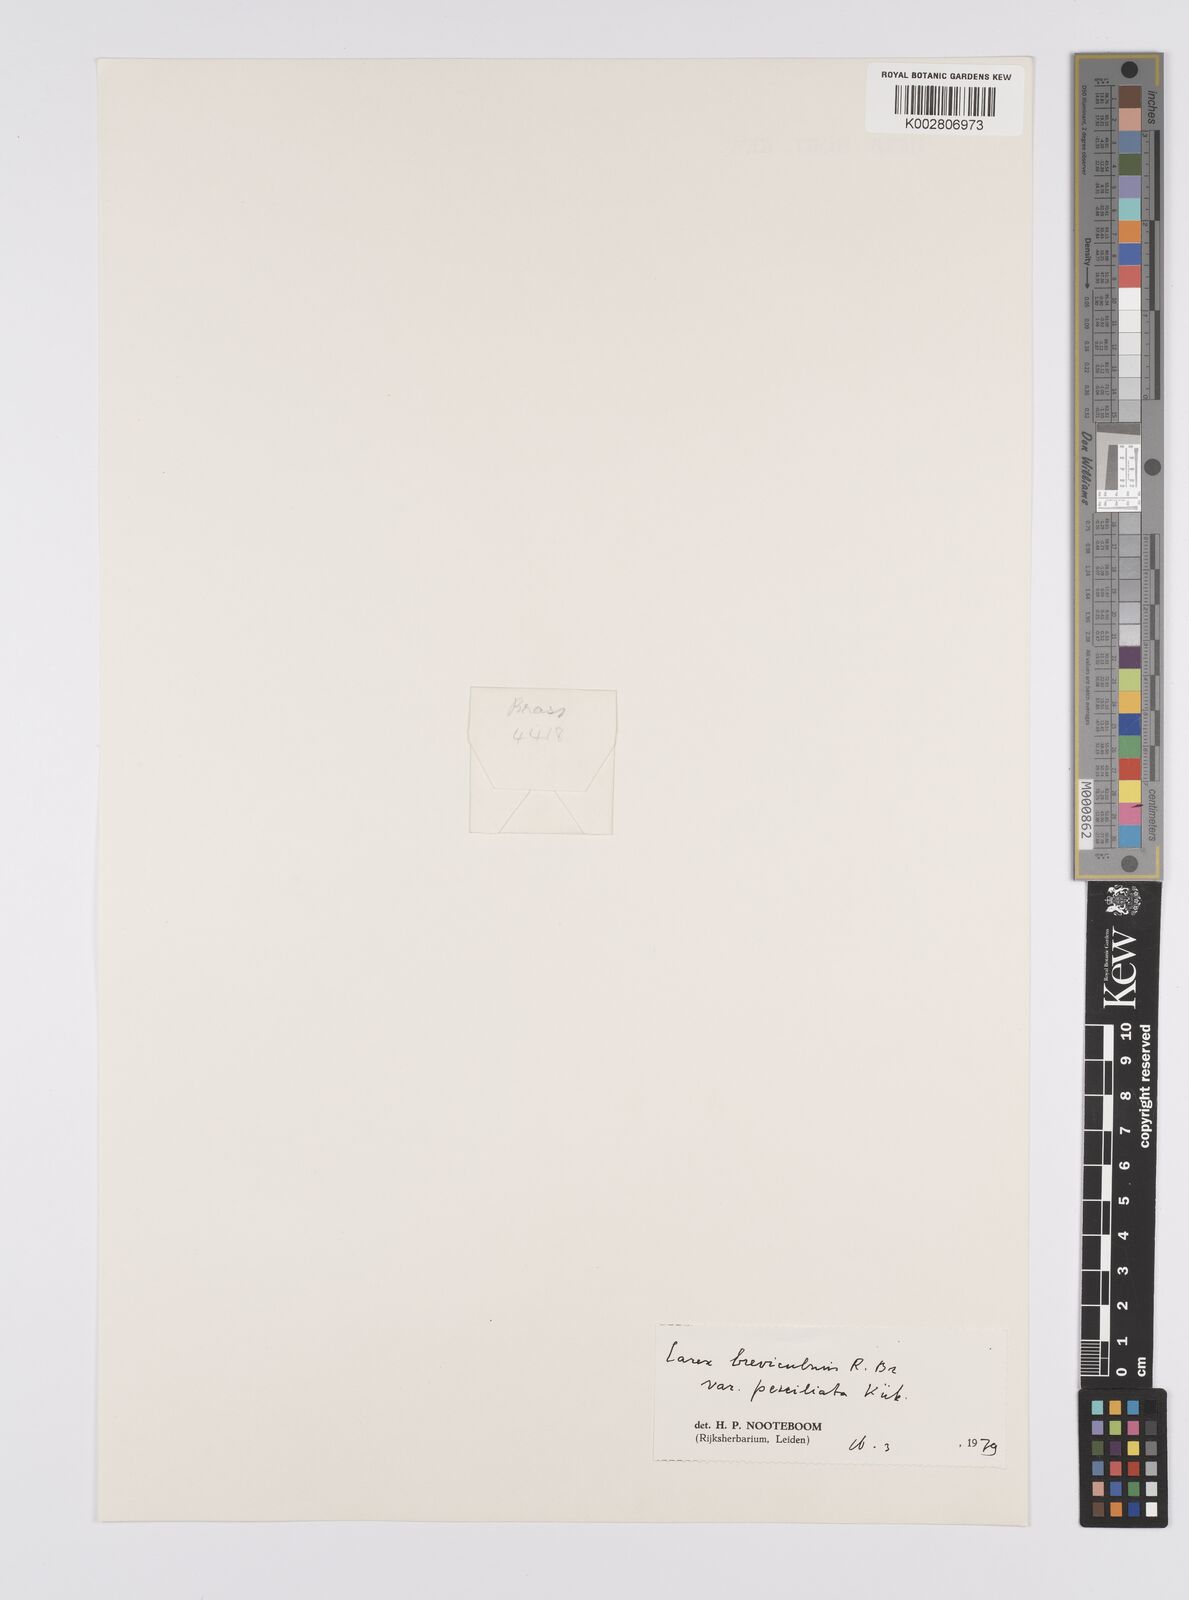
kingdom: Plantae
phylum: Tracheophyta
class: Liliopsida
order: Poales
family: Cyperaceae
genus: Carex
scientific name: Carex breviculmis
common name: Asian shortstem sedge
